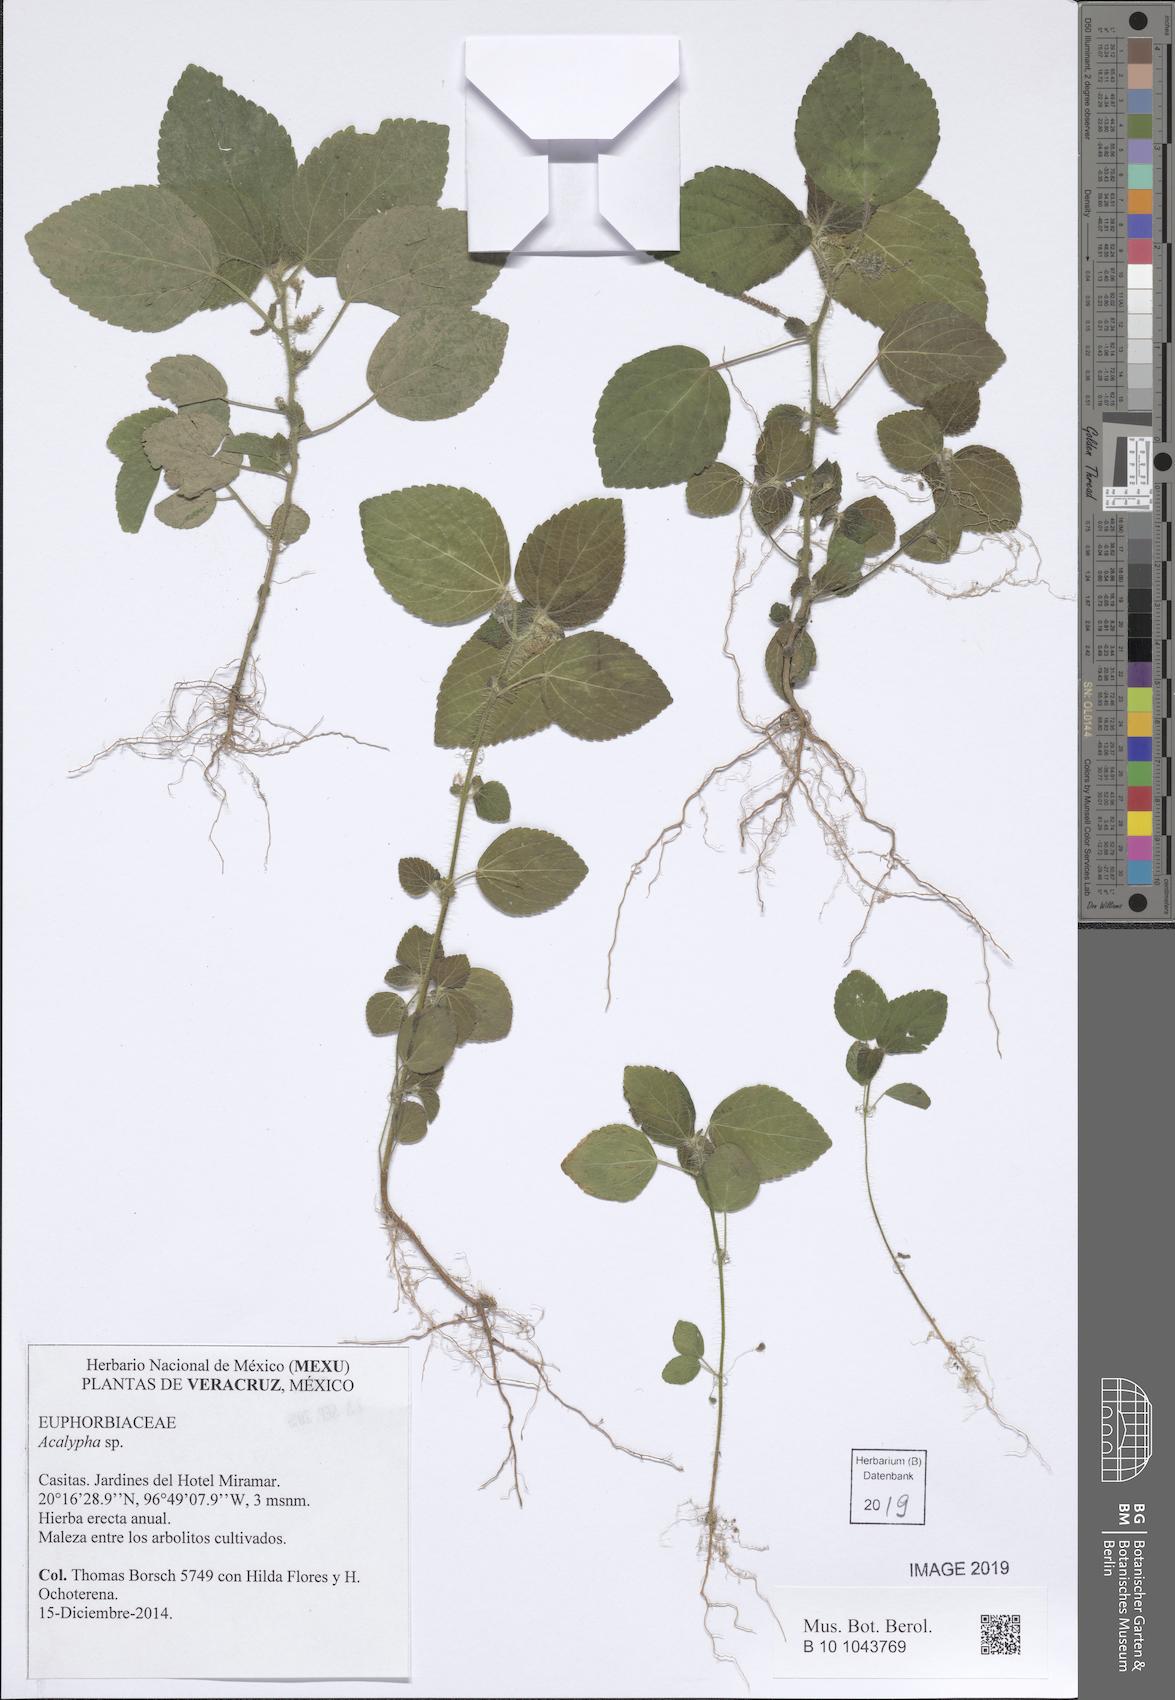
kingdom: Plantae
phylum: Tracheophyta
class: Magnoliopsida
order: Malpighiales
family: Euphorbiaceae
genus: Acalypha
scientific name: Acalypha
